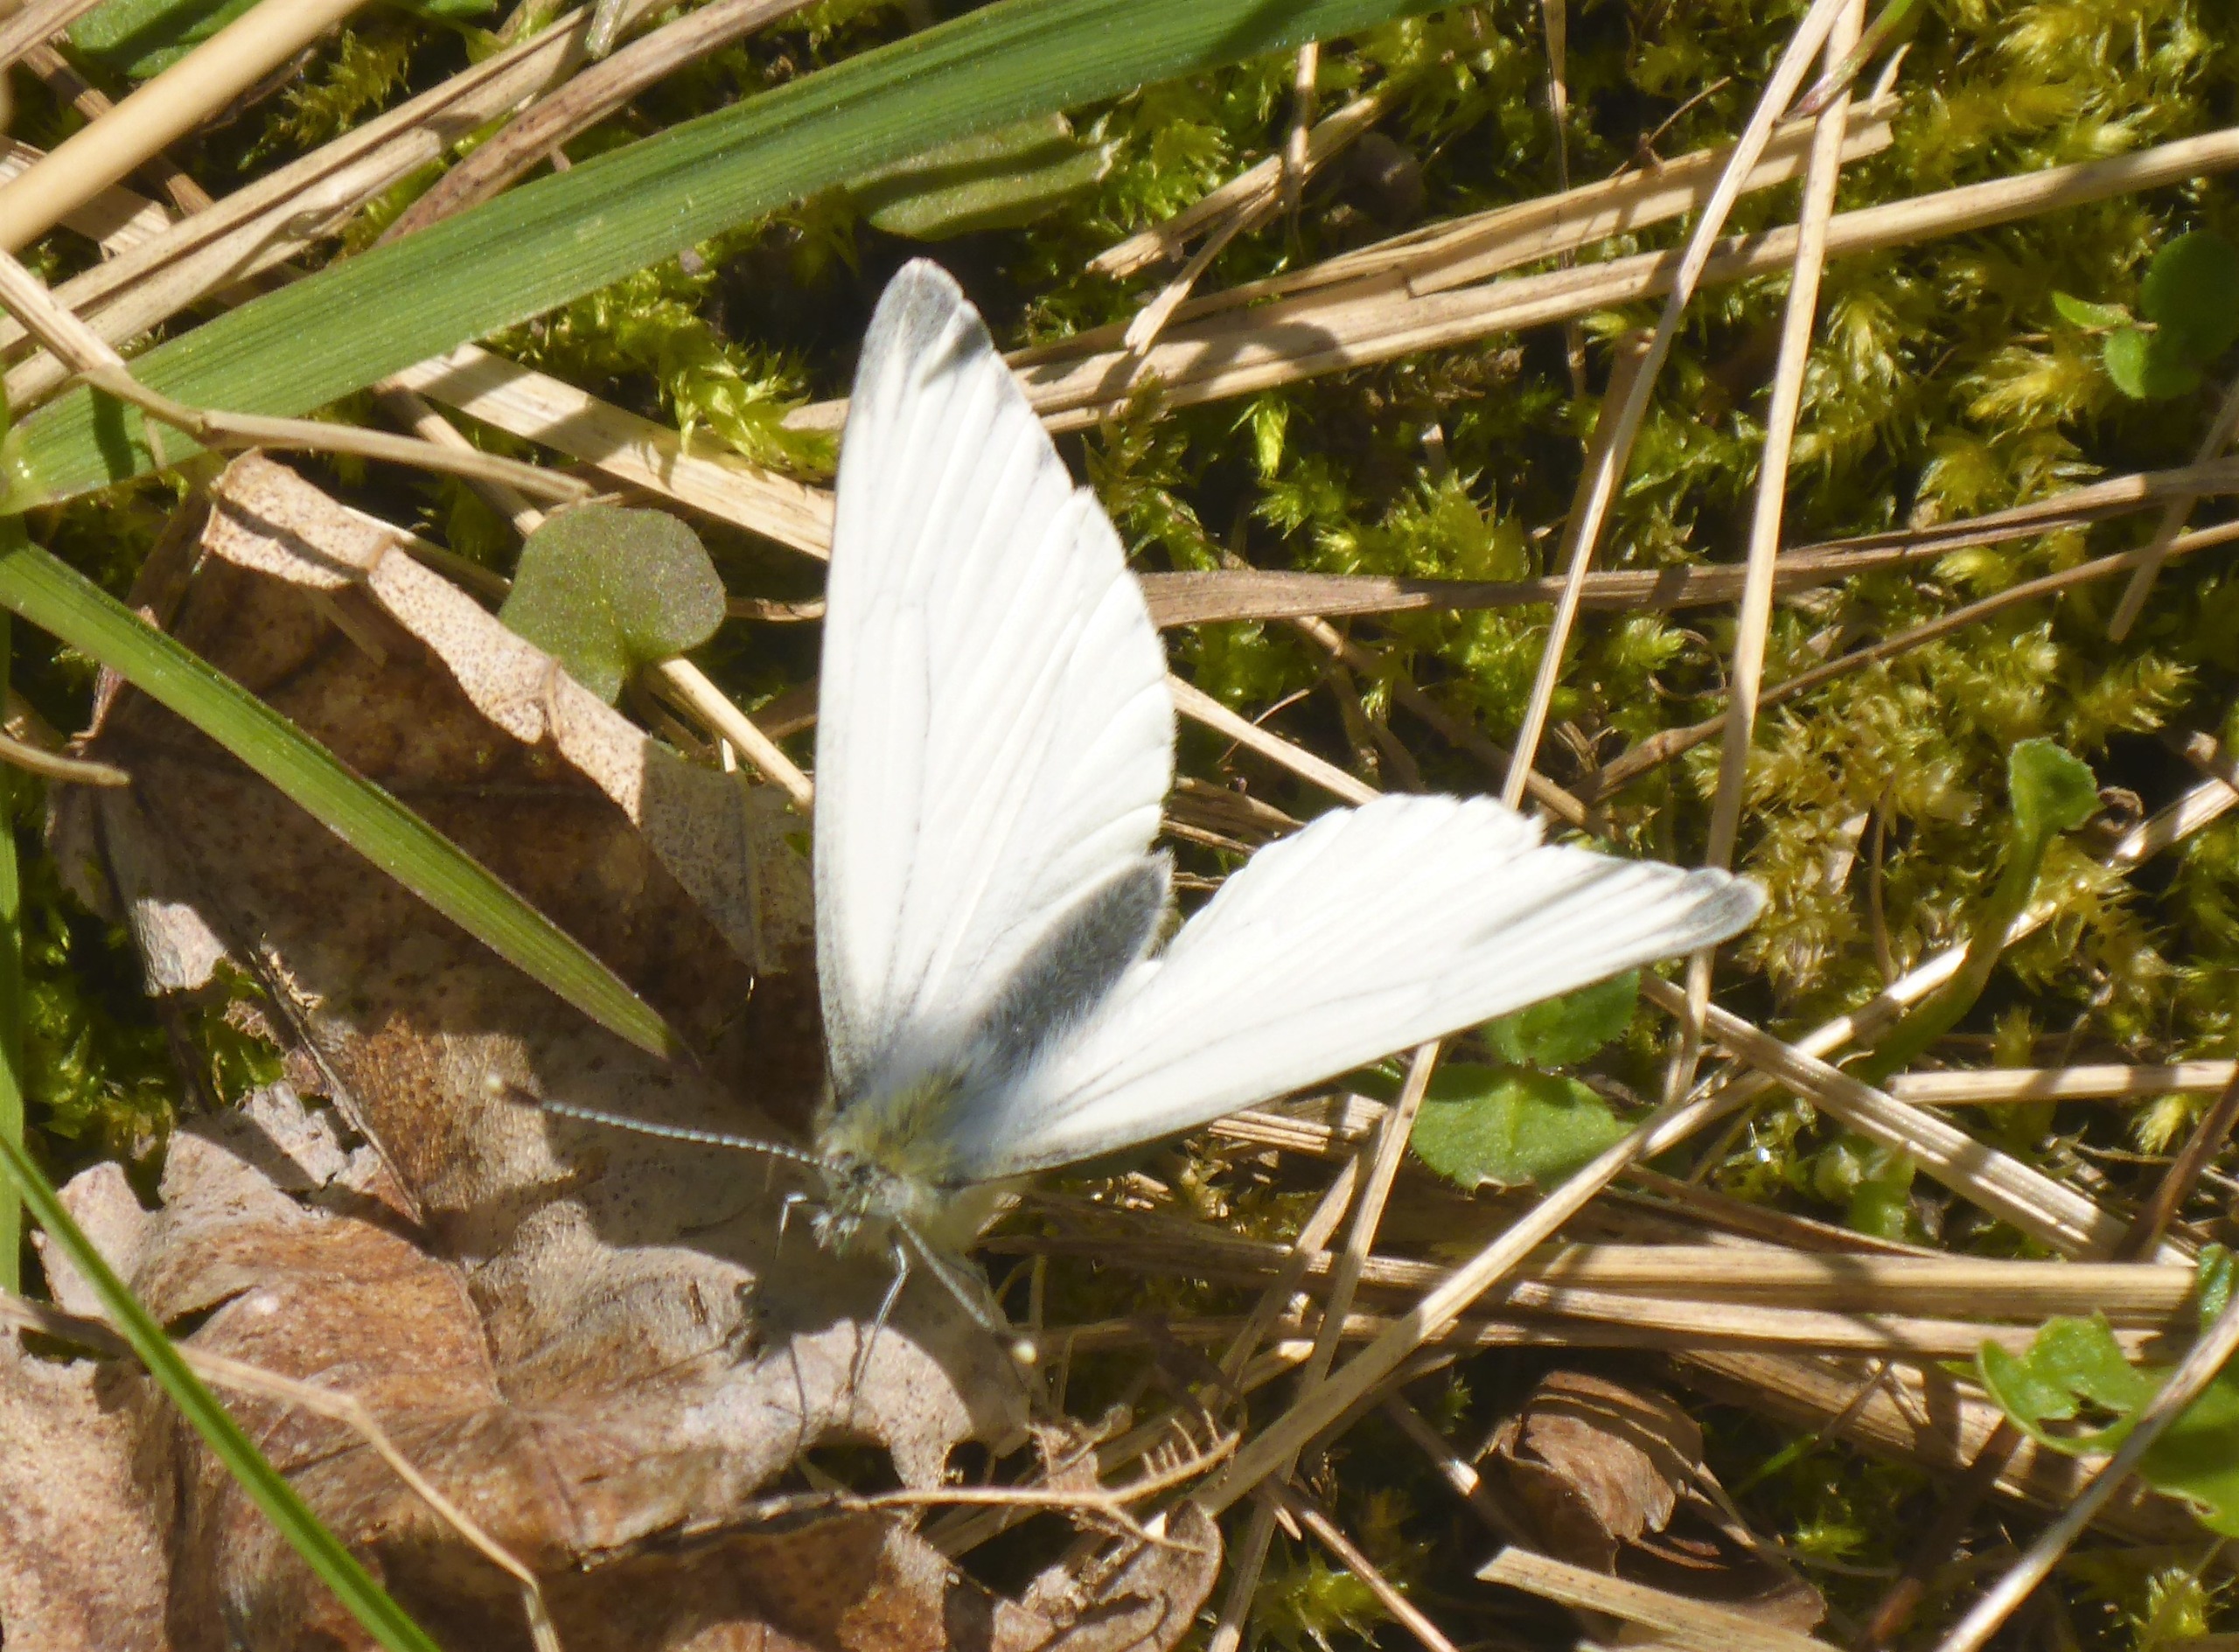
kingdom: Animalia
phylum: Arthropoda
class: Insecta
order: Lepidoptera
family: Pieridae
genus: Pieris
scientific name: Pieris napi
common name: Grønåret kålsommerfugl
